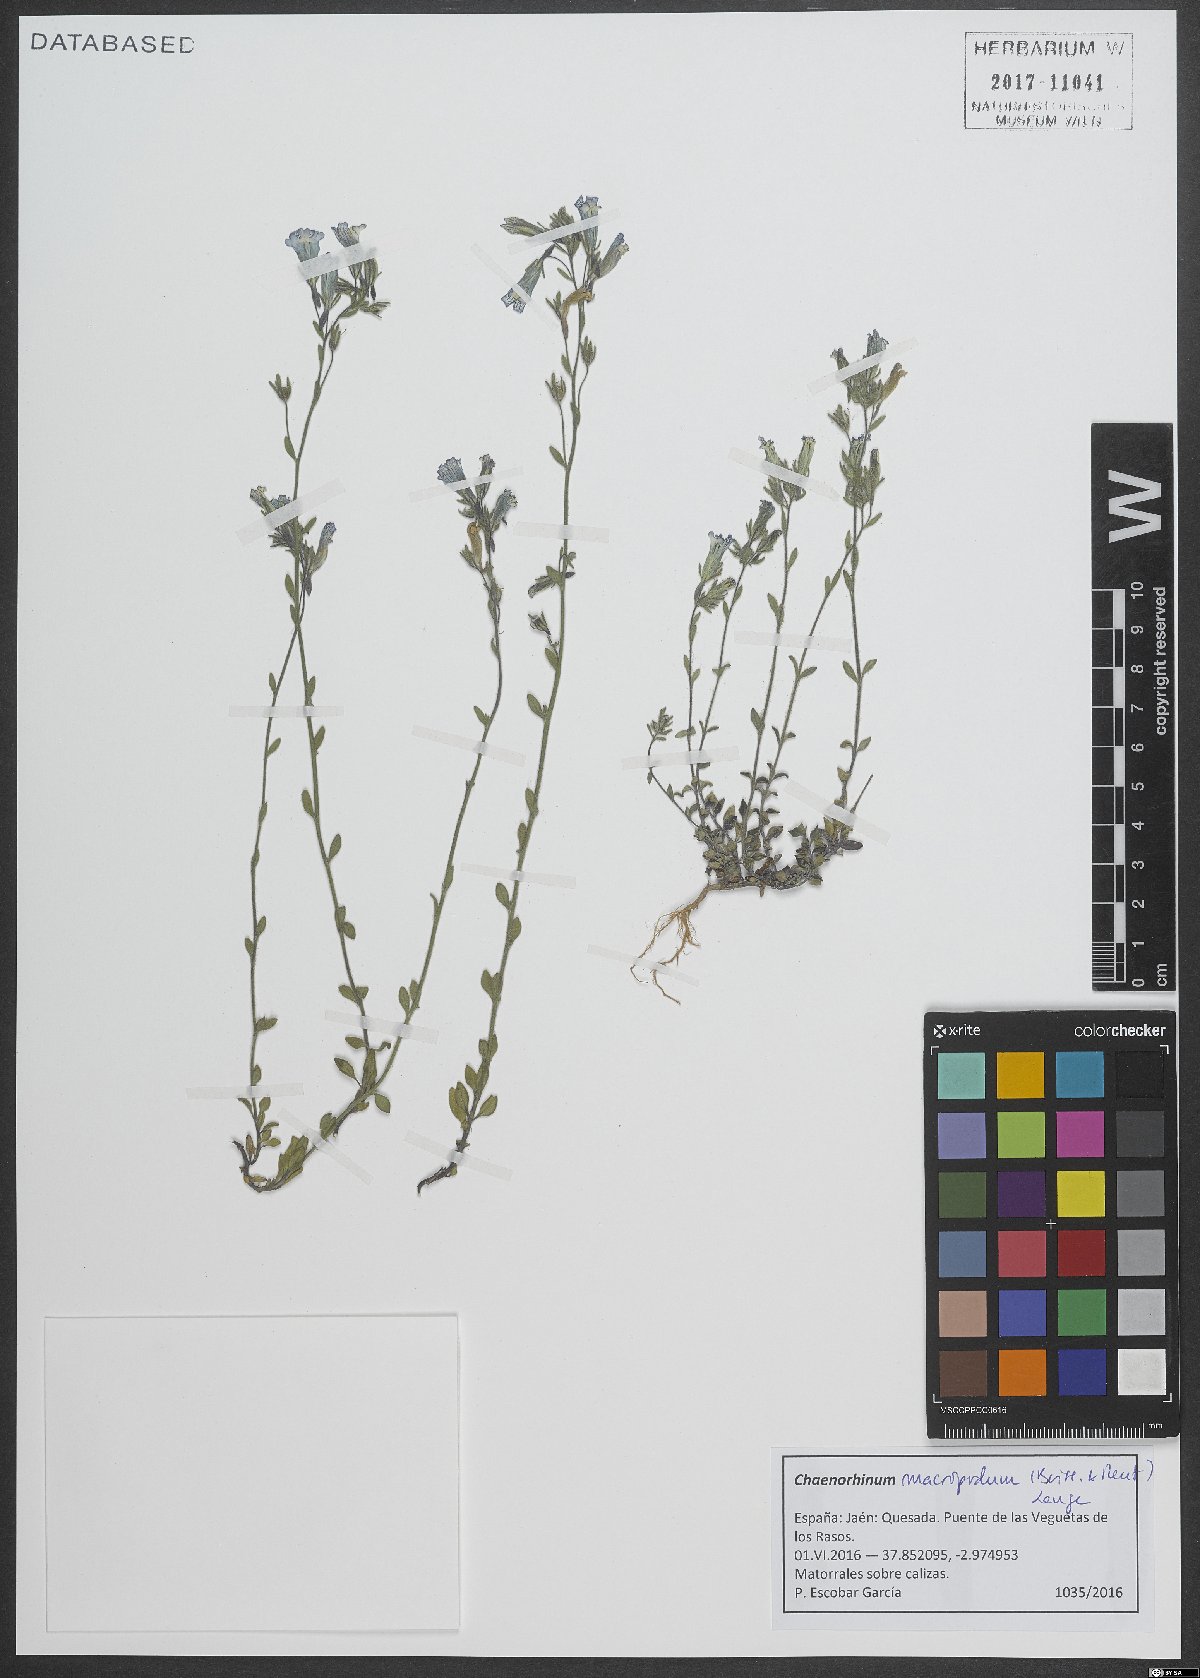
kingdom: Plantae
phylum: Tracheophyta
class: Magnoliopsida
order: Lamiales
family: Plantaginaceae
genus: Chaenorhinum
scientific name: Chaenorhinum macropodum
